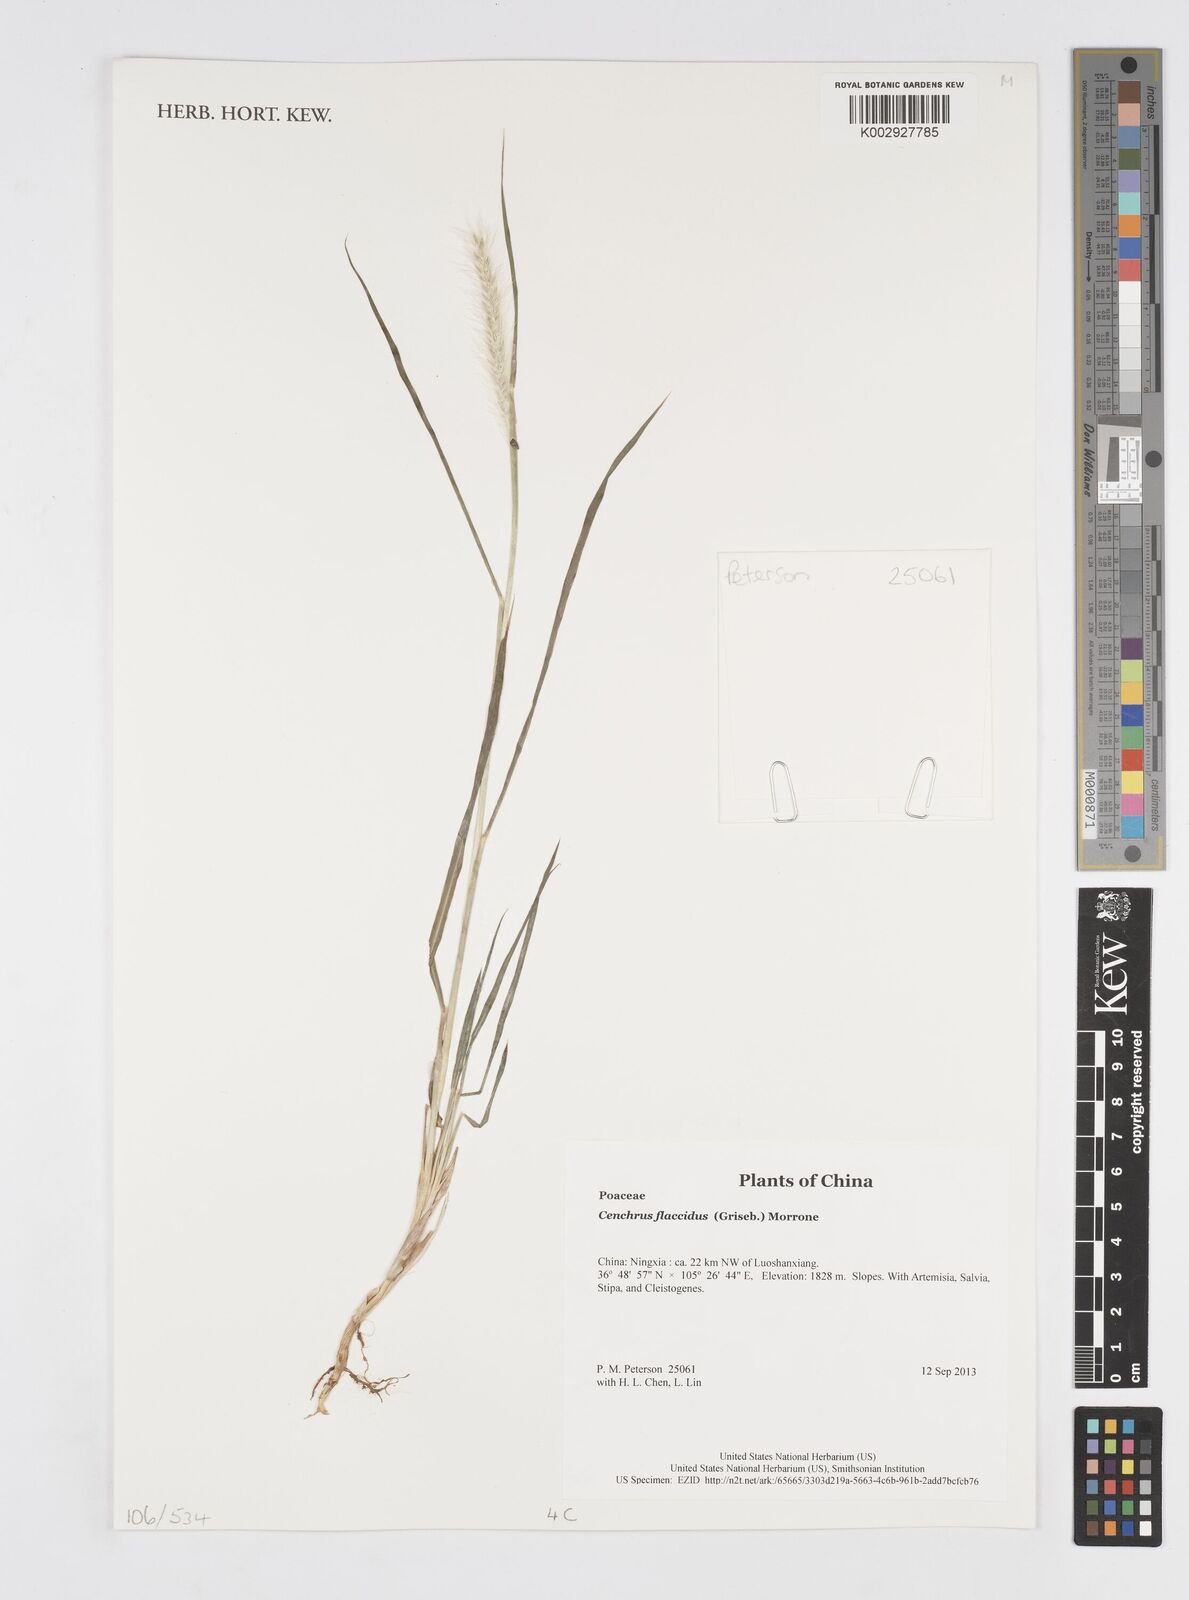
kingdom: Plantae
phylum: Tracheophyta
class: Liliopsida
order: Poales
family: Poaceae
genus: Cenchrus
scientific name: Cenchrus flaccidus
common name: Flaccid grass
